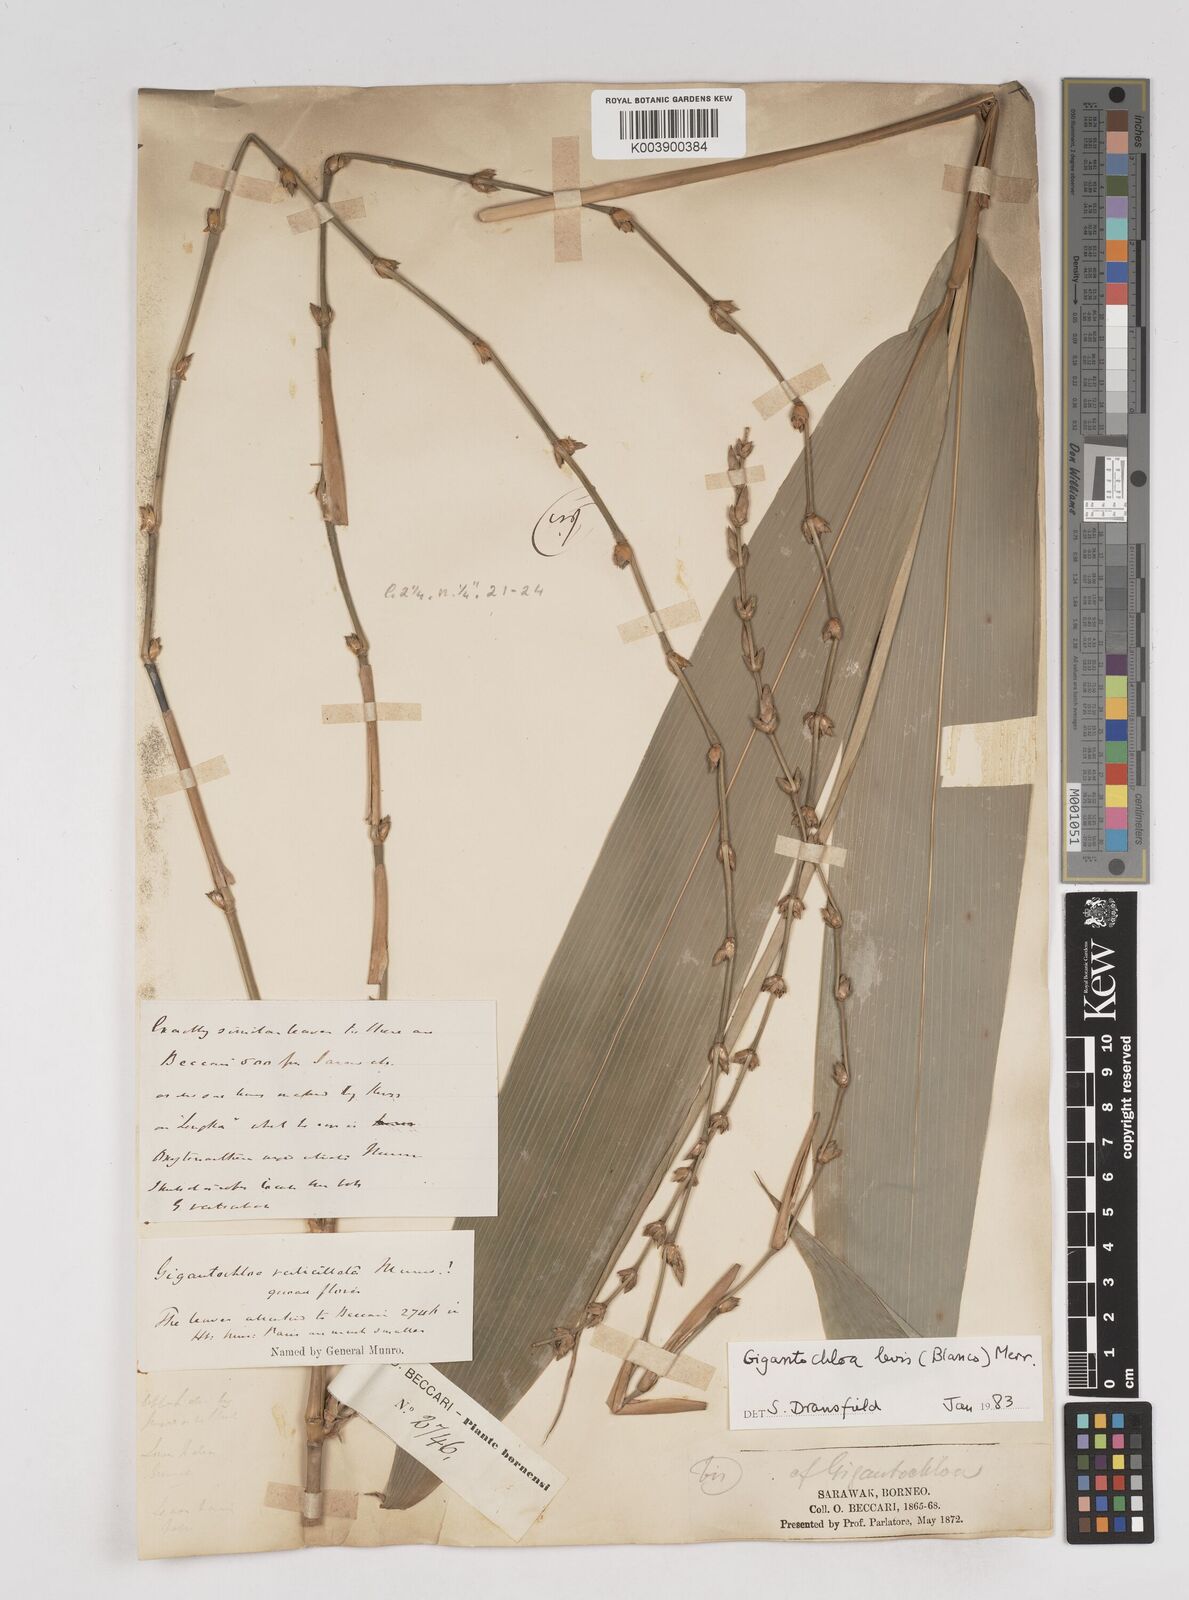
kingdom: Plantae
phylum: Tracheophyta
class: Liliopsida
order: Poales
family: Poaceae
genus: Gigantochloa
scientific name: Gigantochloa
